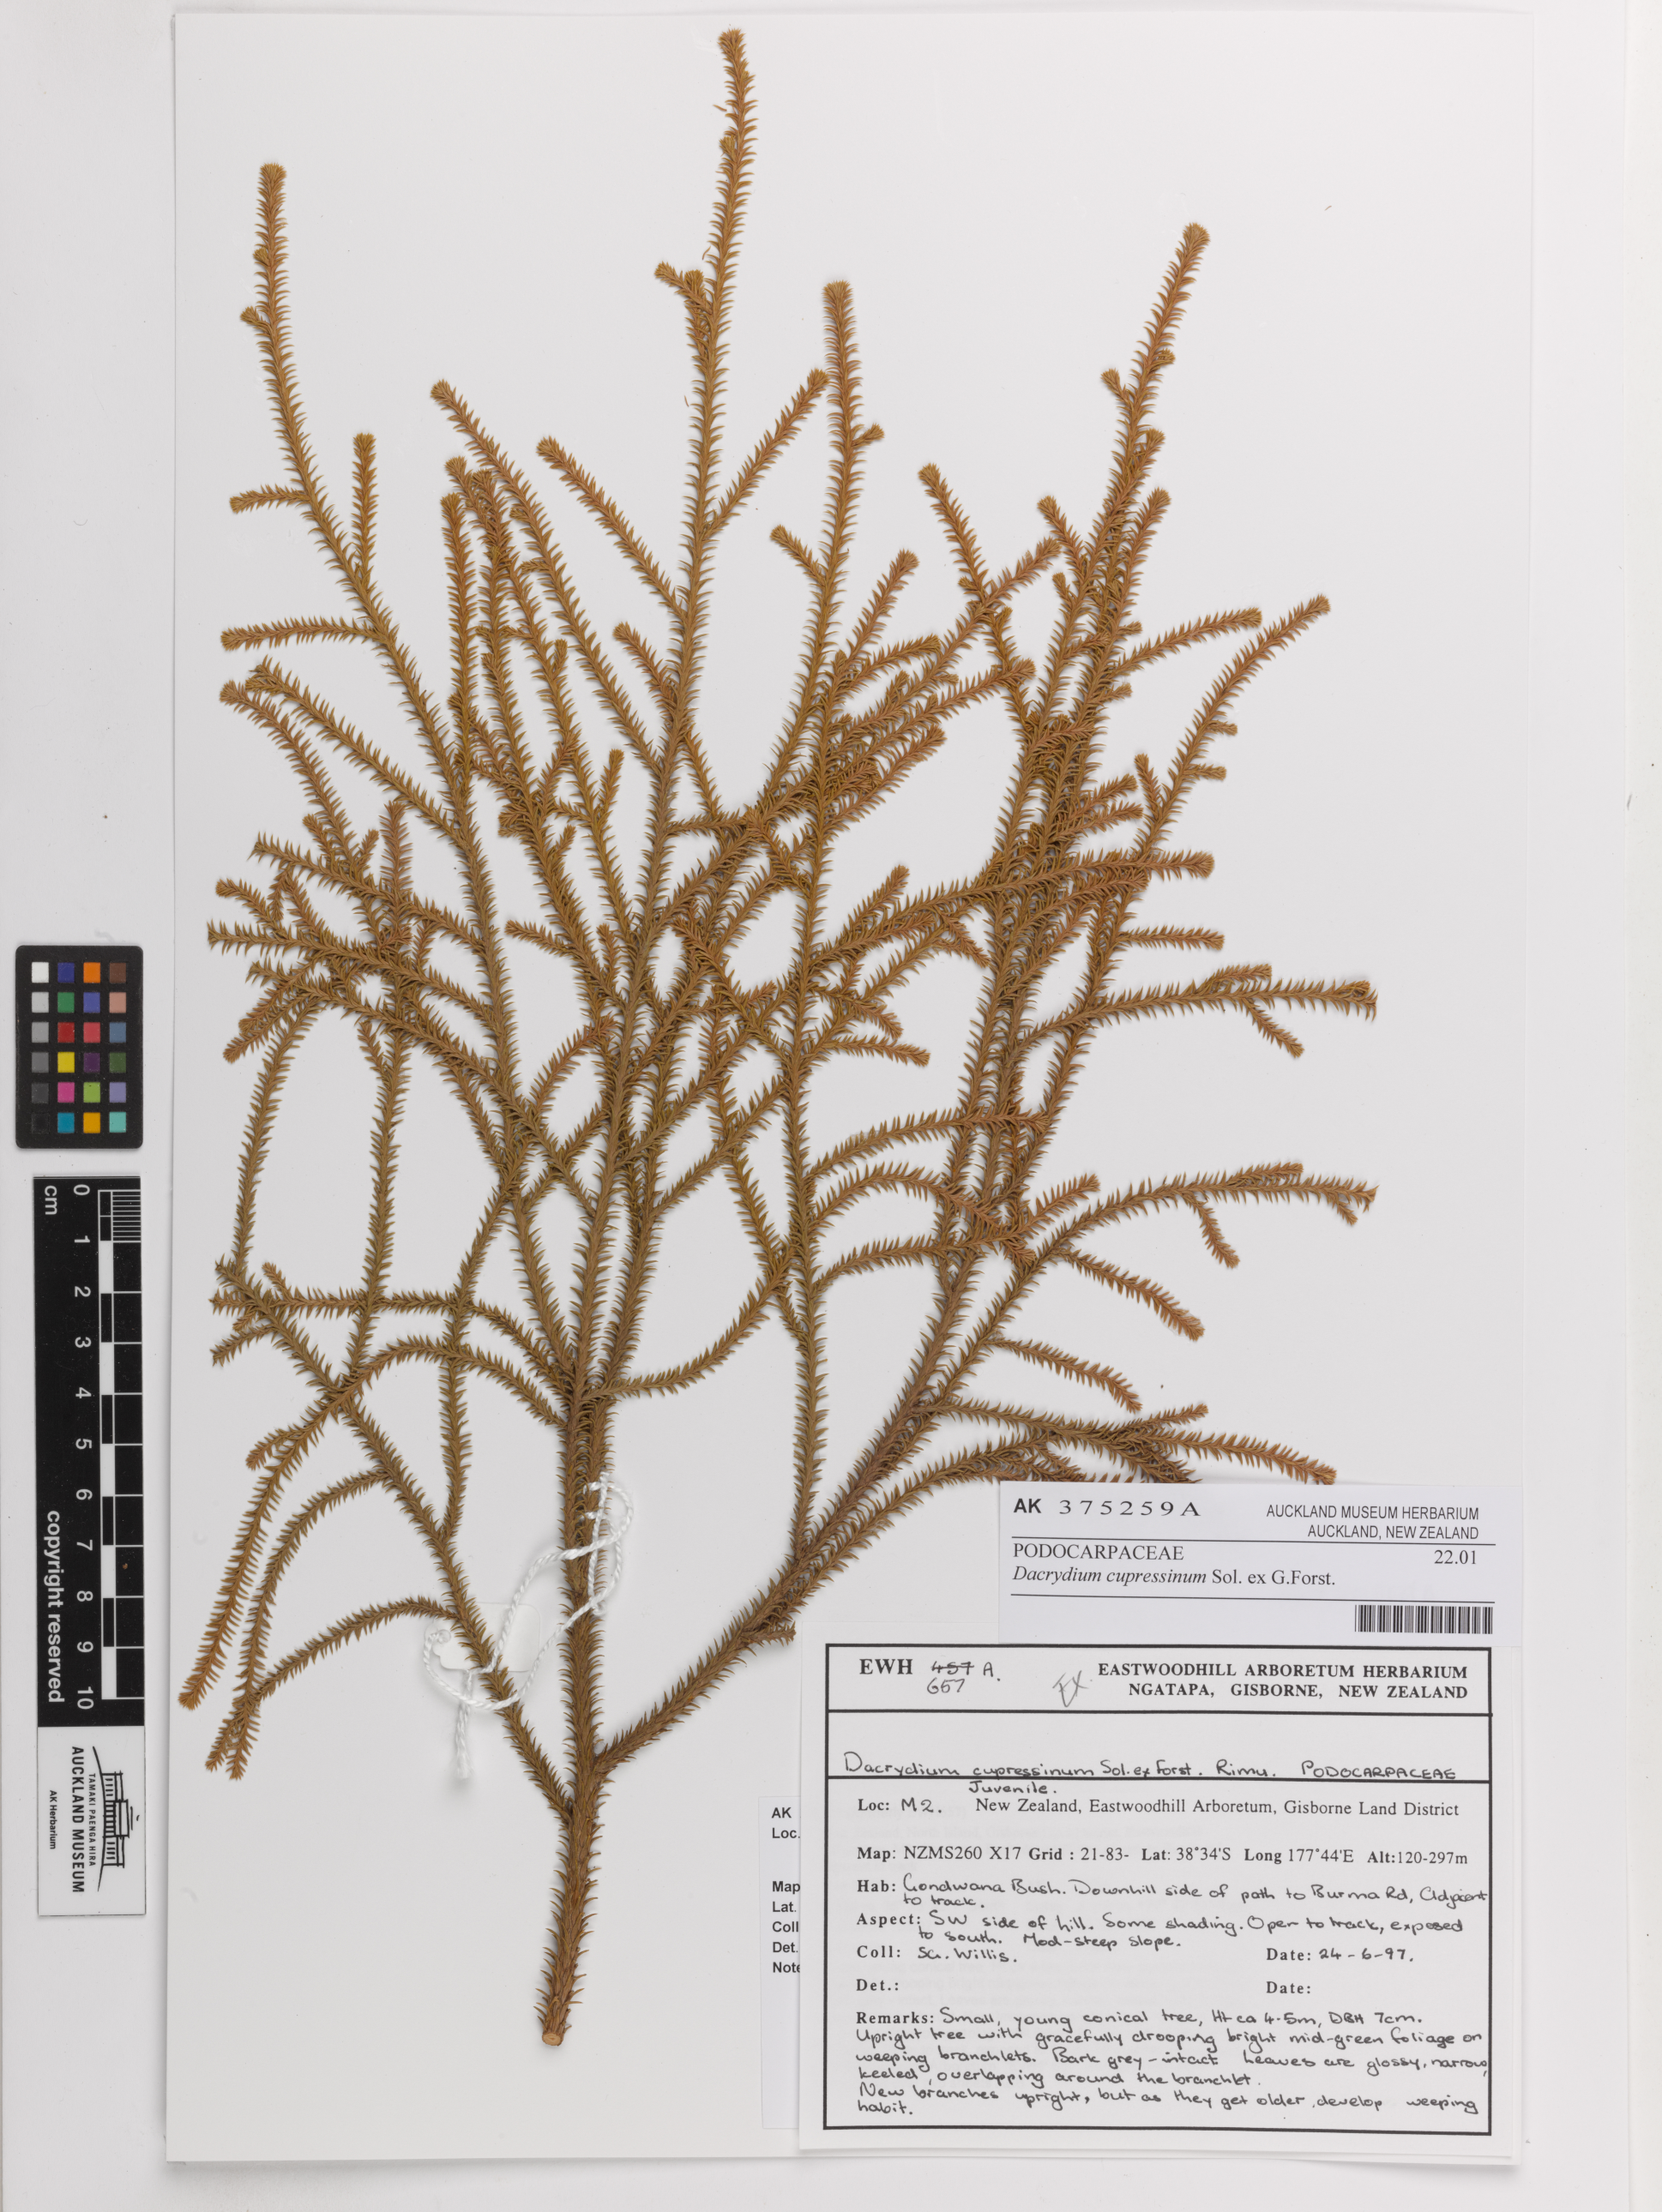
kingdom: Plantae
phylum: Tracheophyta
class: Pinopsida
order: Pinales
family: Podocarpaceae
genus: Dacrydium
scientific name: Dacrydium cupressinum
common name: Red pine
